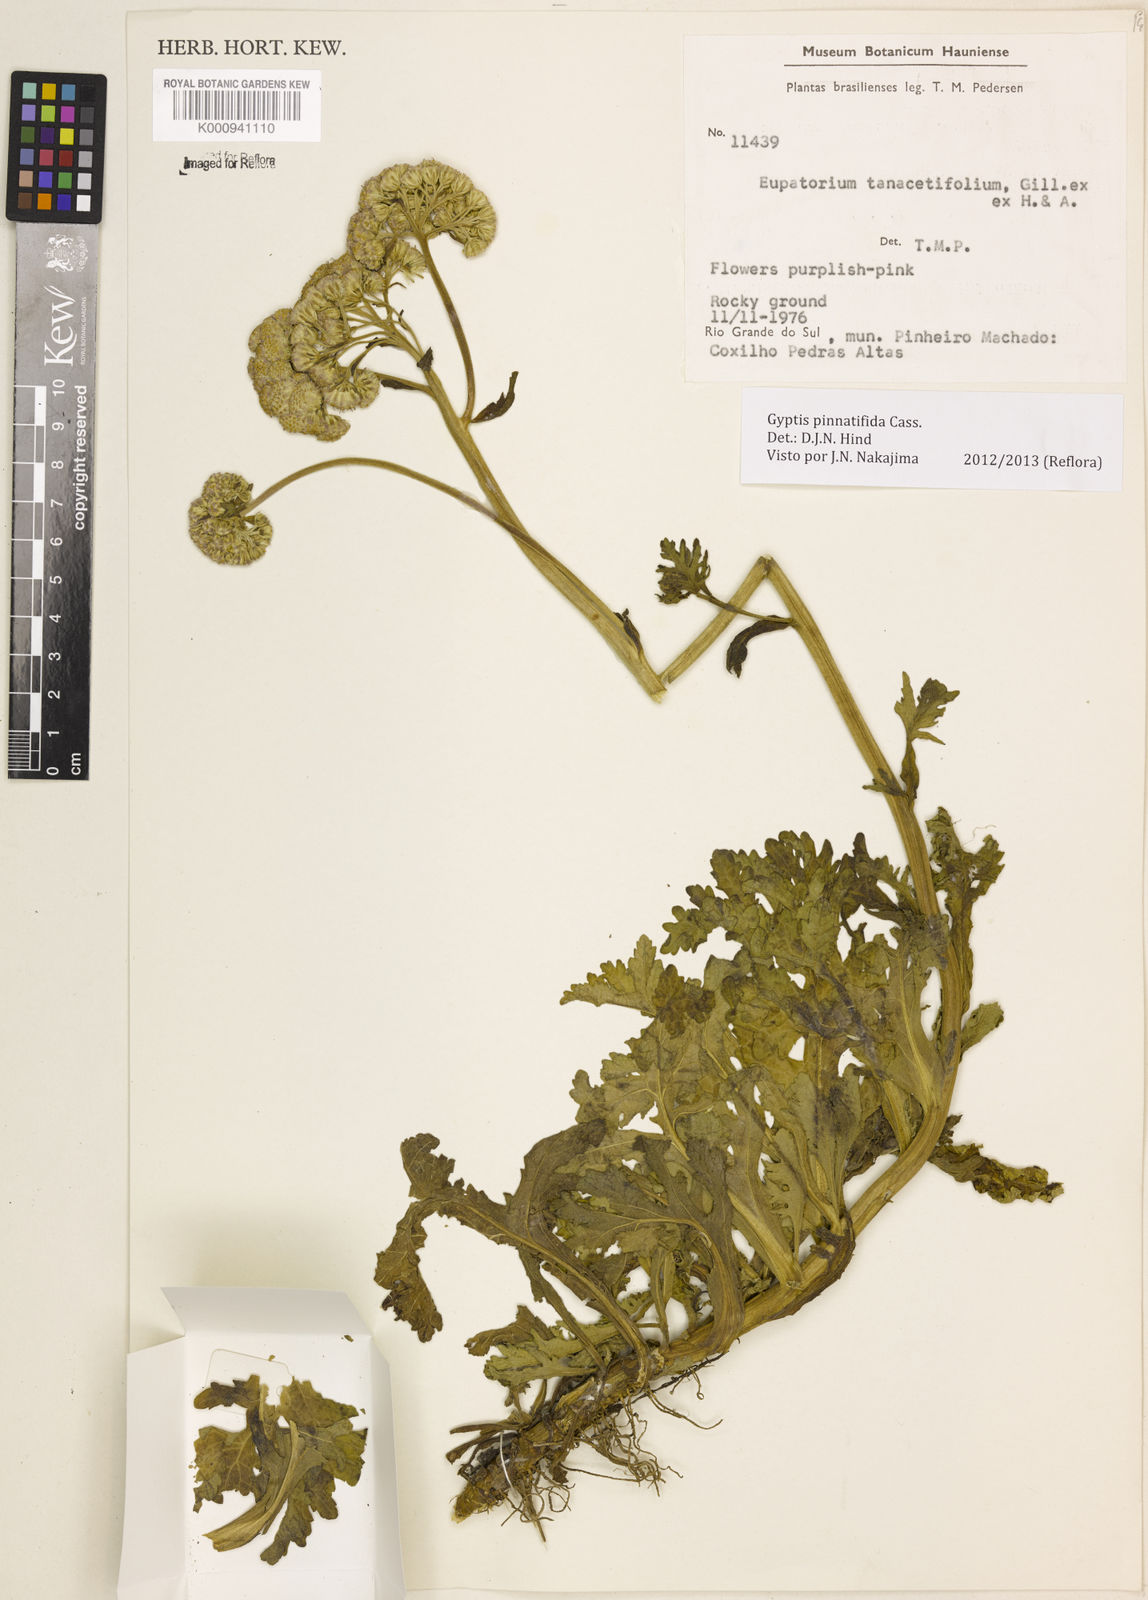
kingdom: Plantae
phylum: Tracheophyta
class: Magnoliopsida
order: Asterales
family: Asteraceae
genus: Gyptis
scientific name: Gyptis pinnatifida
